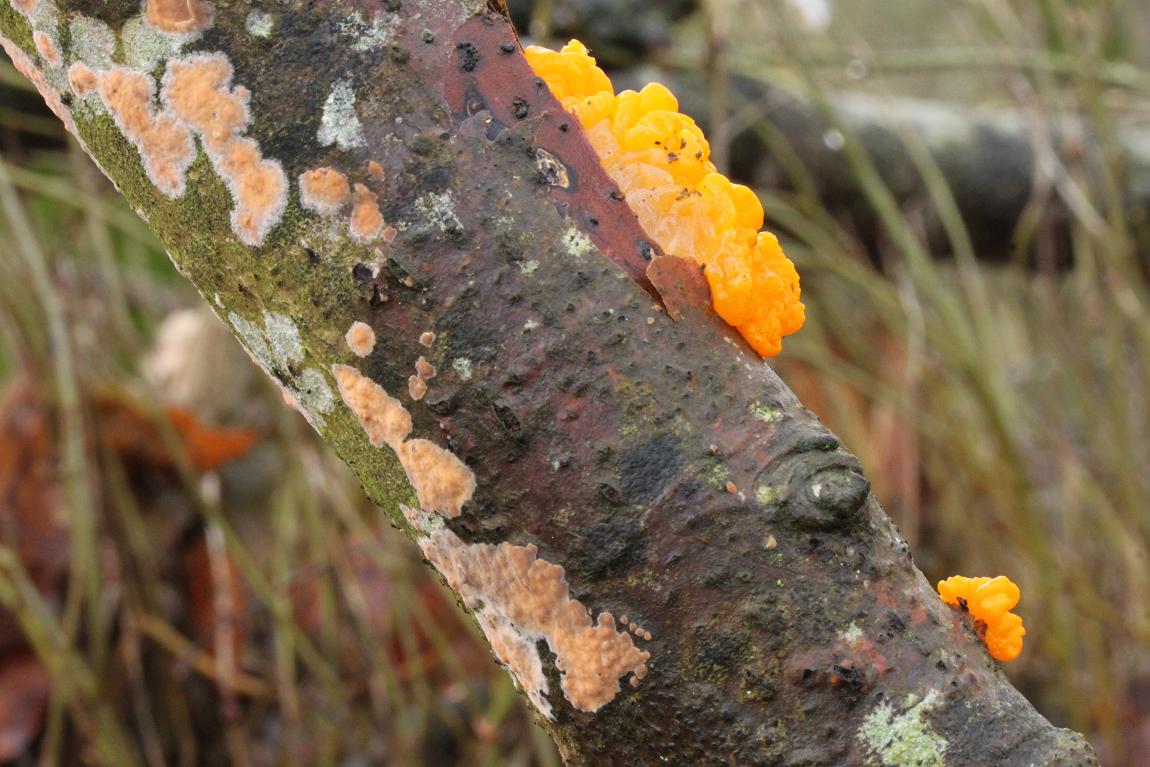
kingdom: Fungi
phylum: Basidiomycota
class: Agaricomycetes
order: Russulales
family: Peniophoraceae
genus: Peniophora
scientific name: Peniophora incarnata
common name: laksefarvet voksskind
